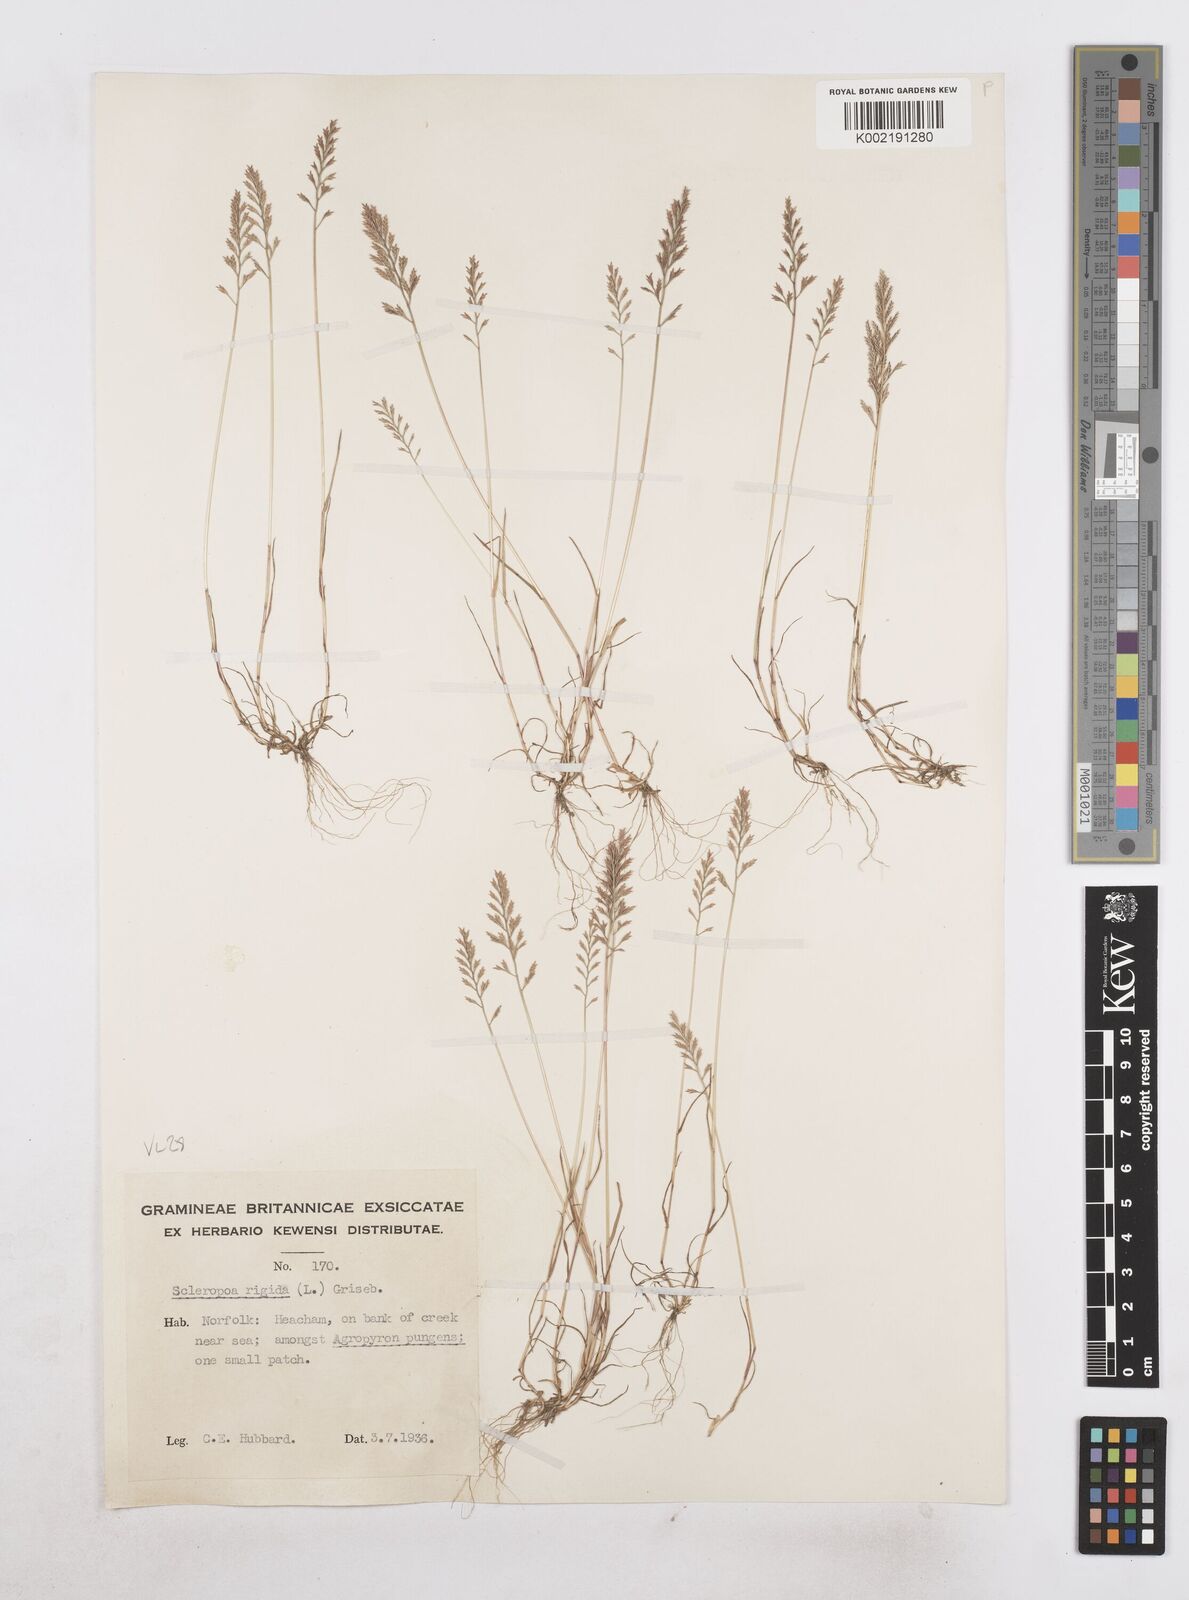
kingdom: Plantae
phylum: Tracheophyta
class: Liliopsida
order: Poales
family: Poaceae
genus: Catapodium
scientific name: Catapodium rigidum
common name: Fern-grass
